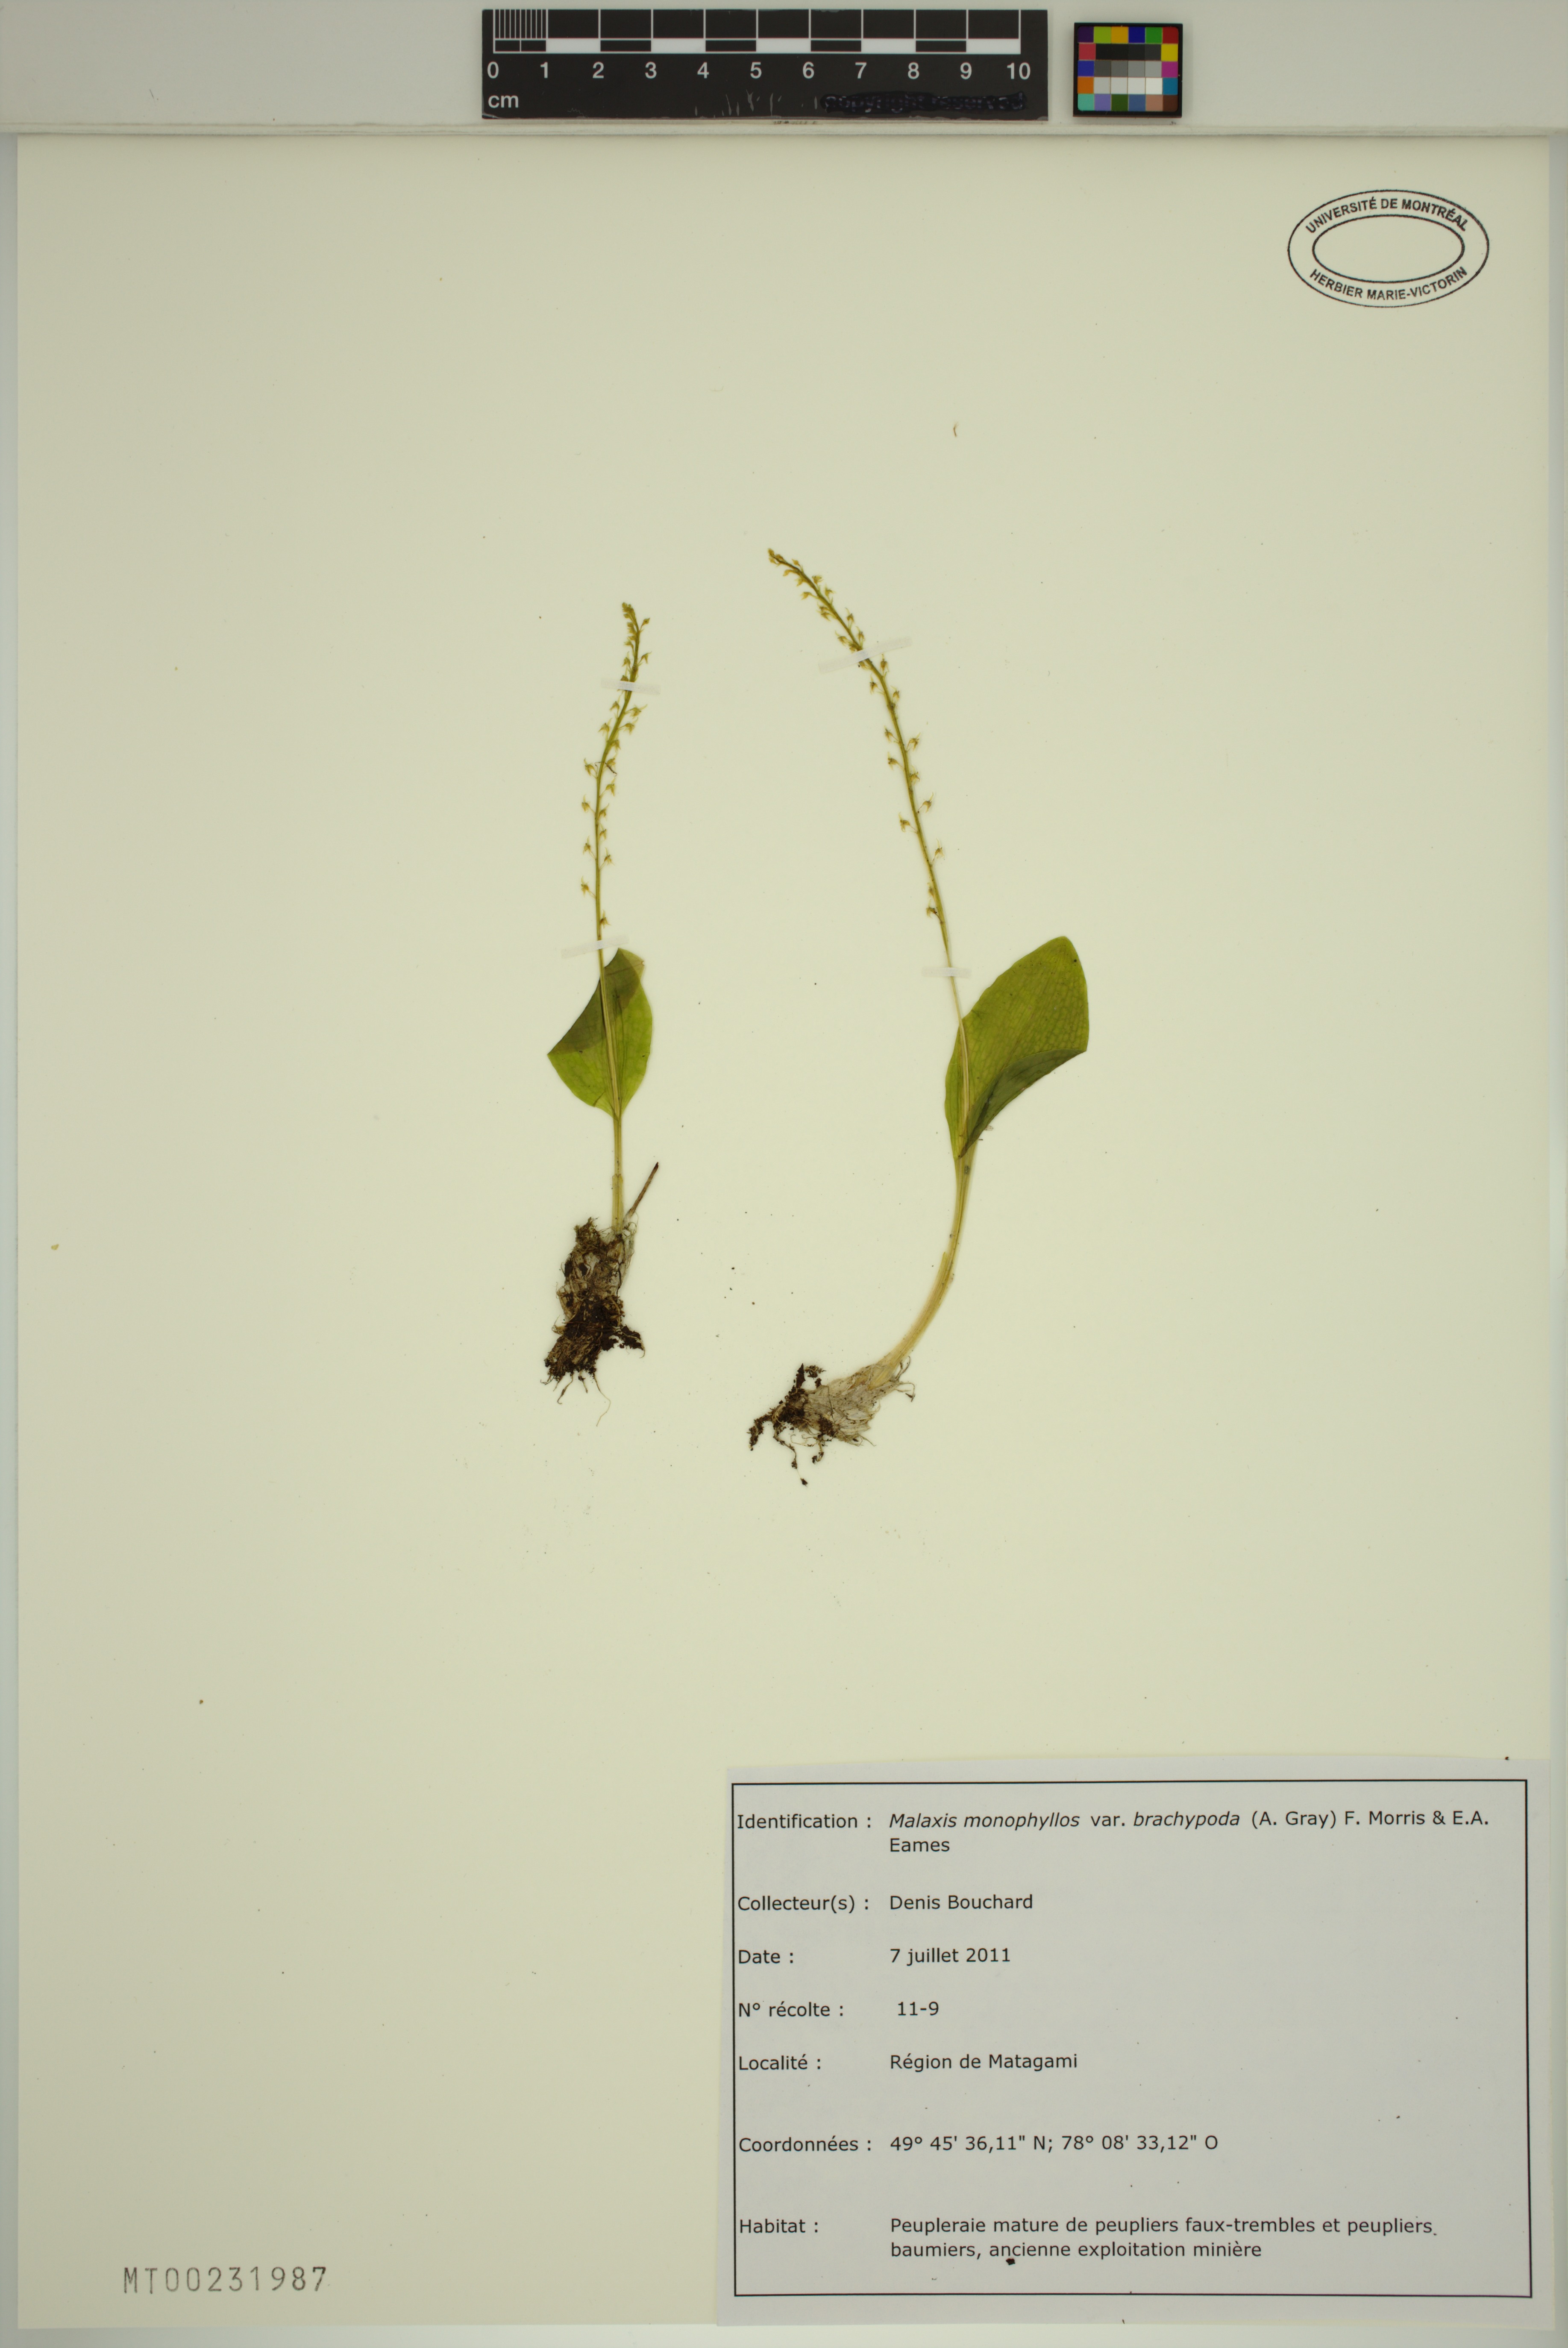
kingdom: Plantae
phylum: Tracheophyta
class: Liliopsida
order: Asparagales
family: Orchidaceae
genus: Malaxis
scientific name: Malaxis monophyllos
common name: White adder's-mouth
